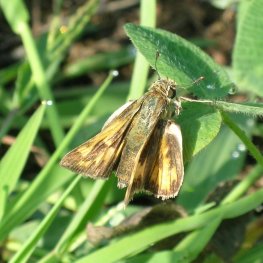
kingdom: Animalia
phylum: Arthropoda
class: Insecta
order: Lepidoptera
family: Hesperiidae
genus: Hylephila
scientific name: Hylephila phyleus
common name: Fiery Skipper
